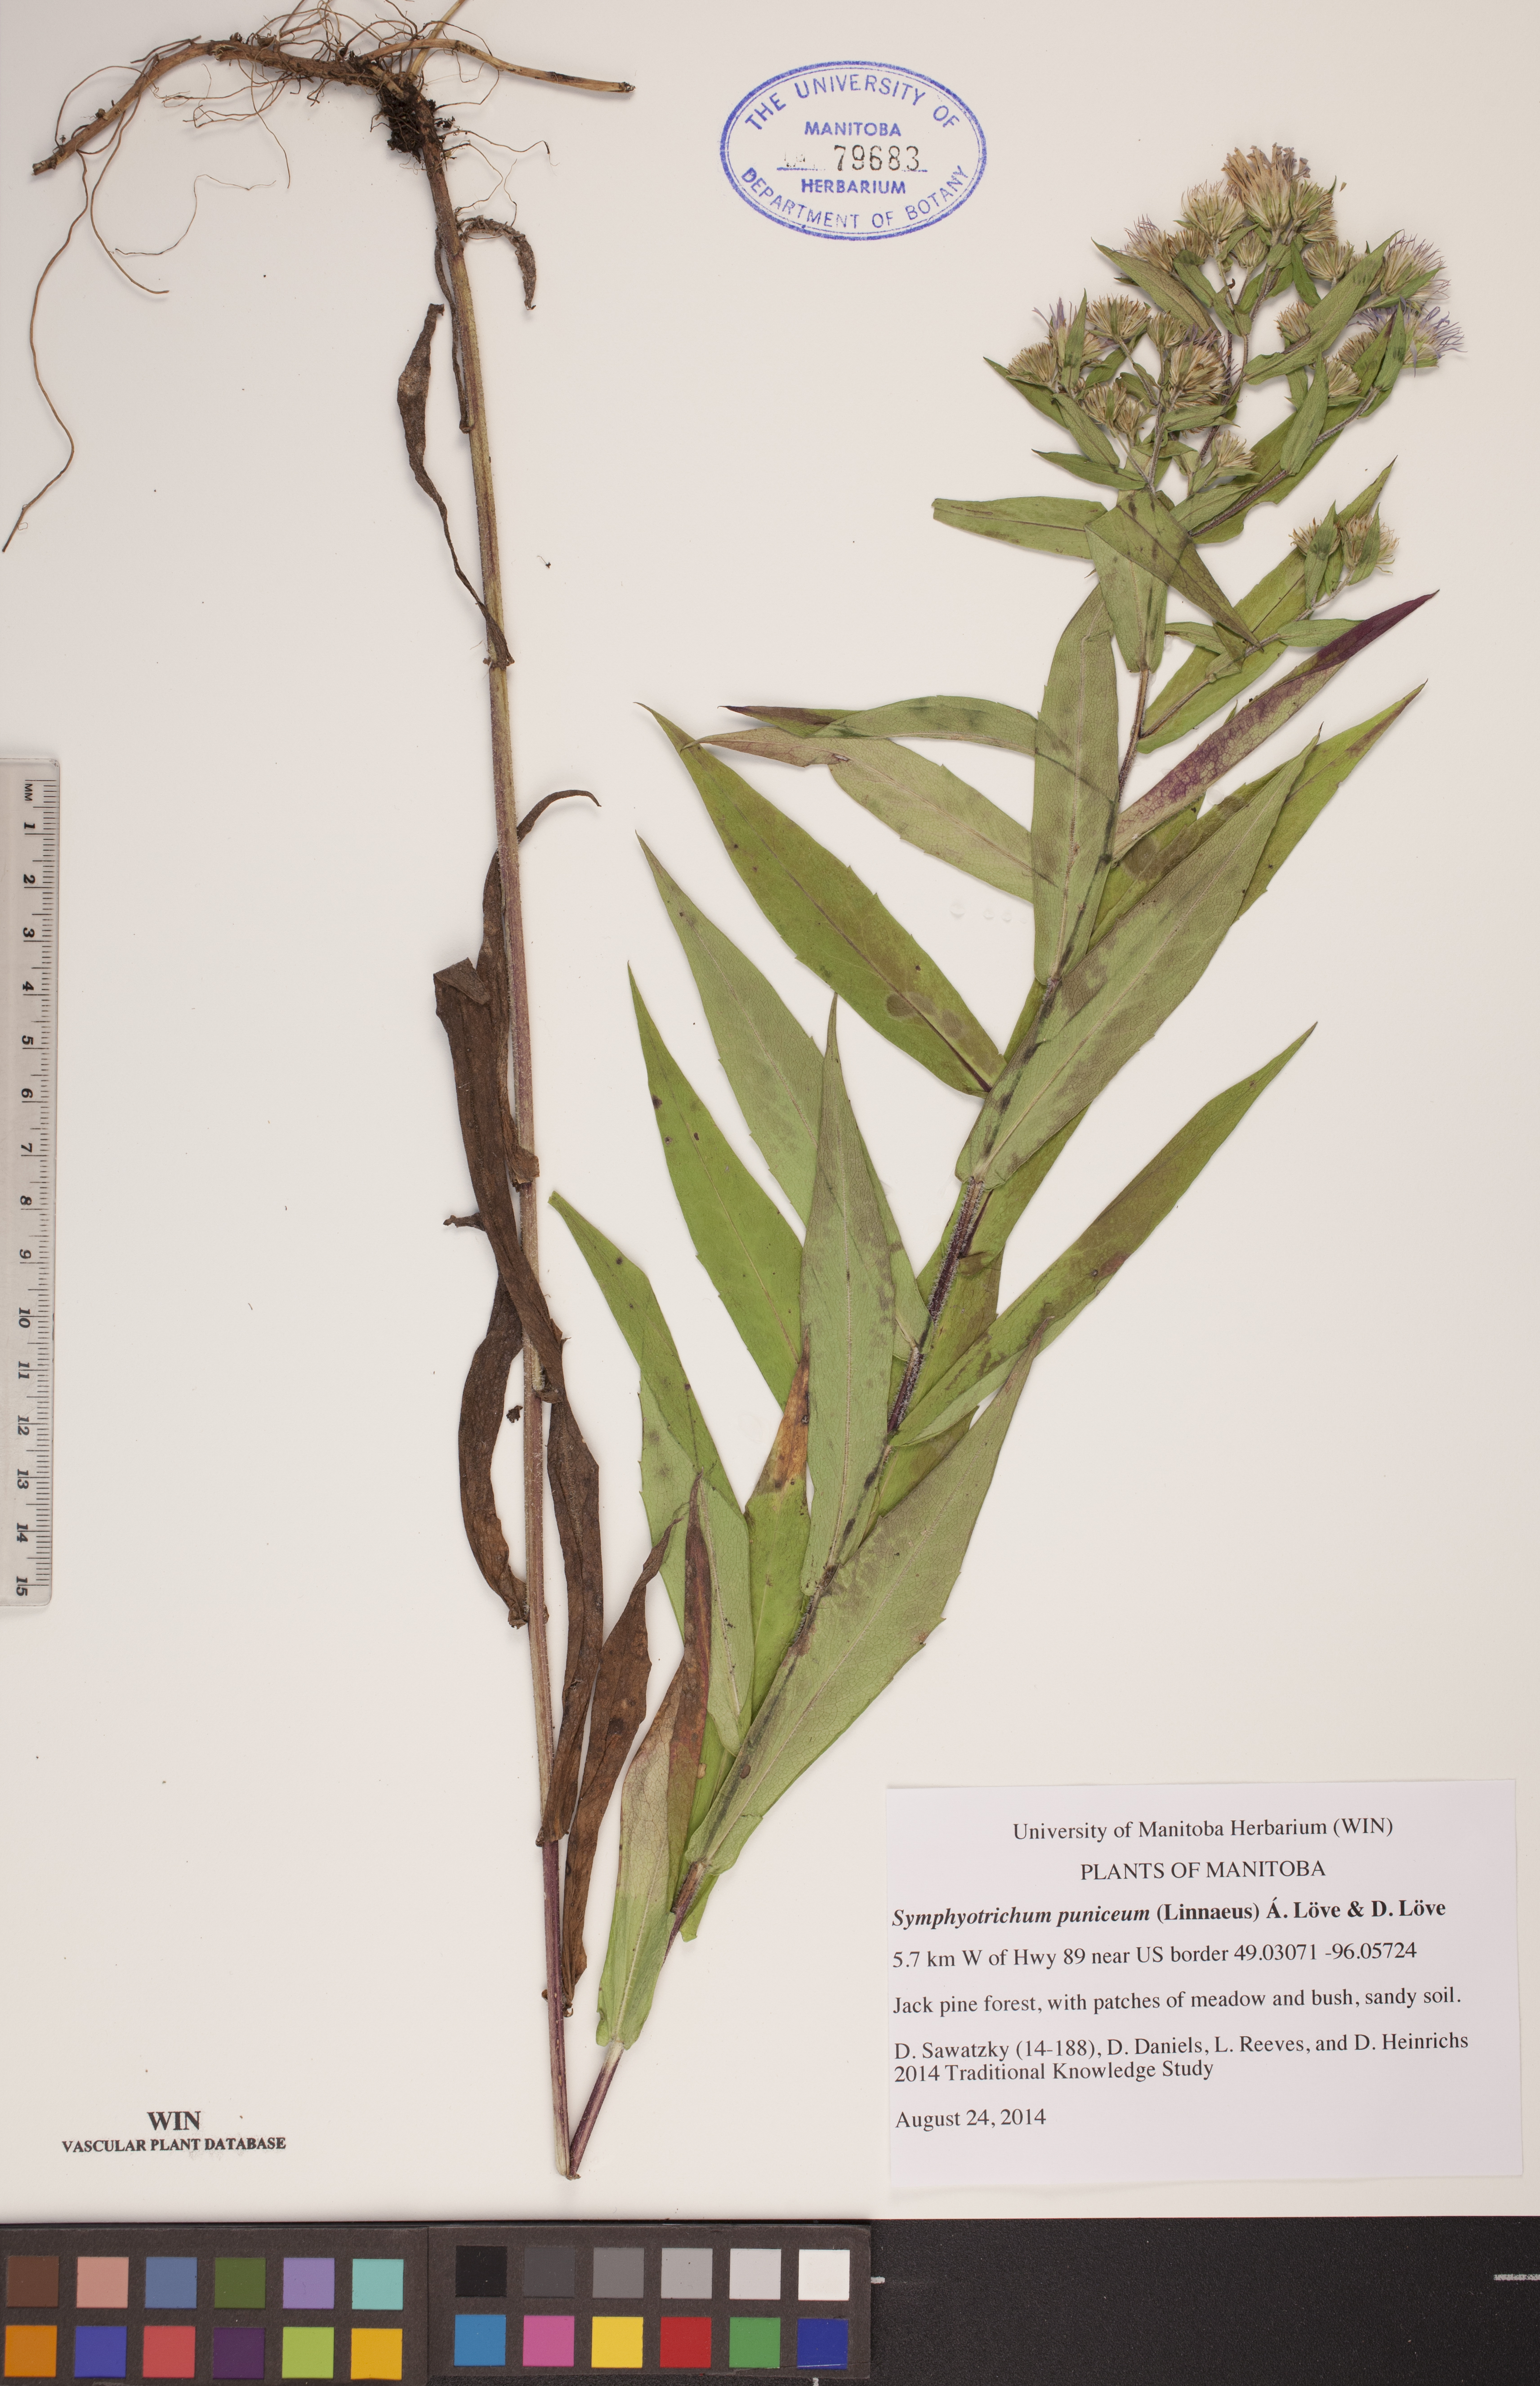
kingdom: Plantae
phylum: Tracheophyta
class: Magnoliopsida
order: Asterales
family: Asteraceae
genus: Symphyotrichum
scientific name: Symphyotrichum puniceum
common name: Bog aster
